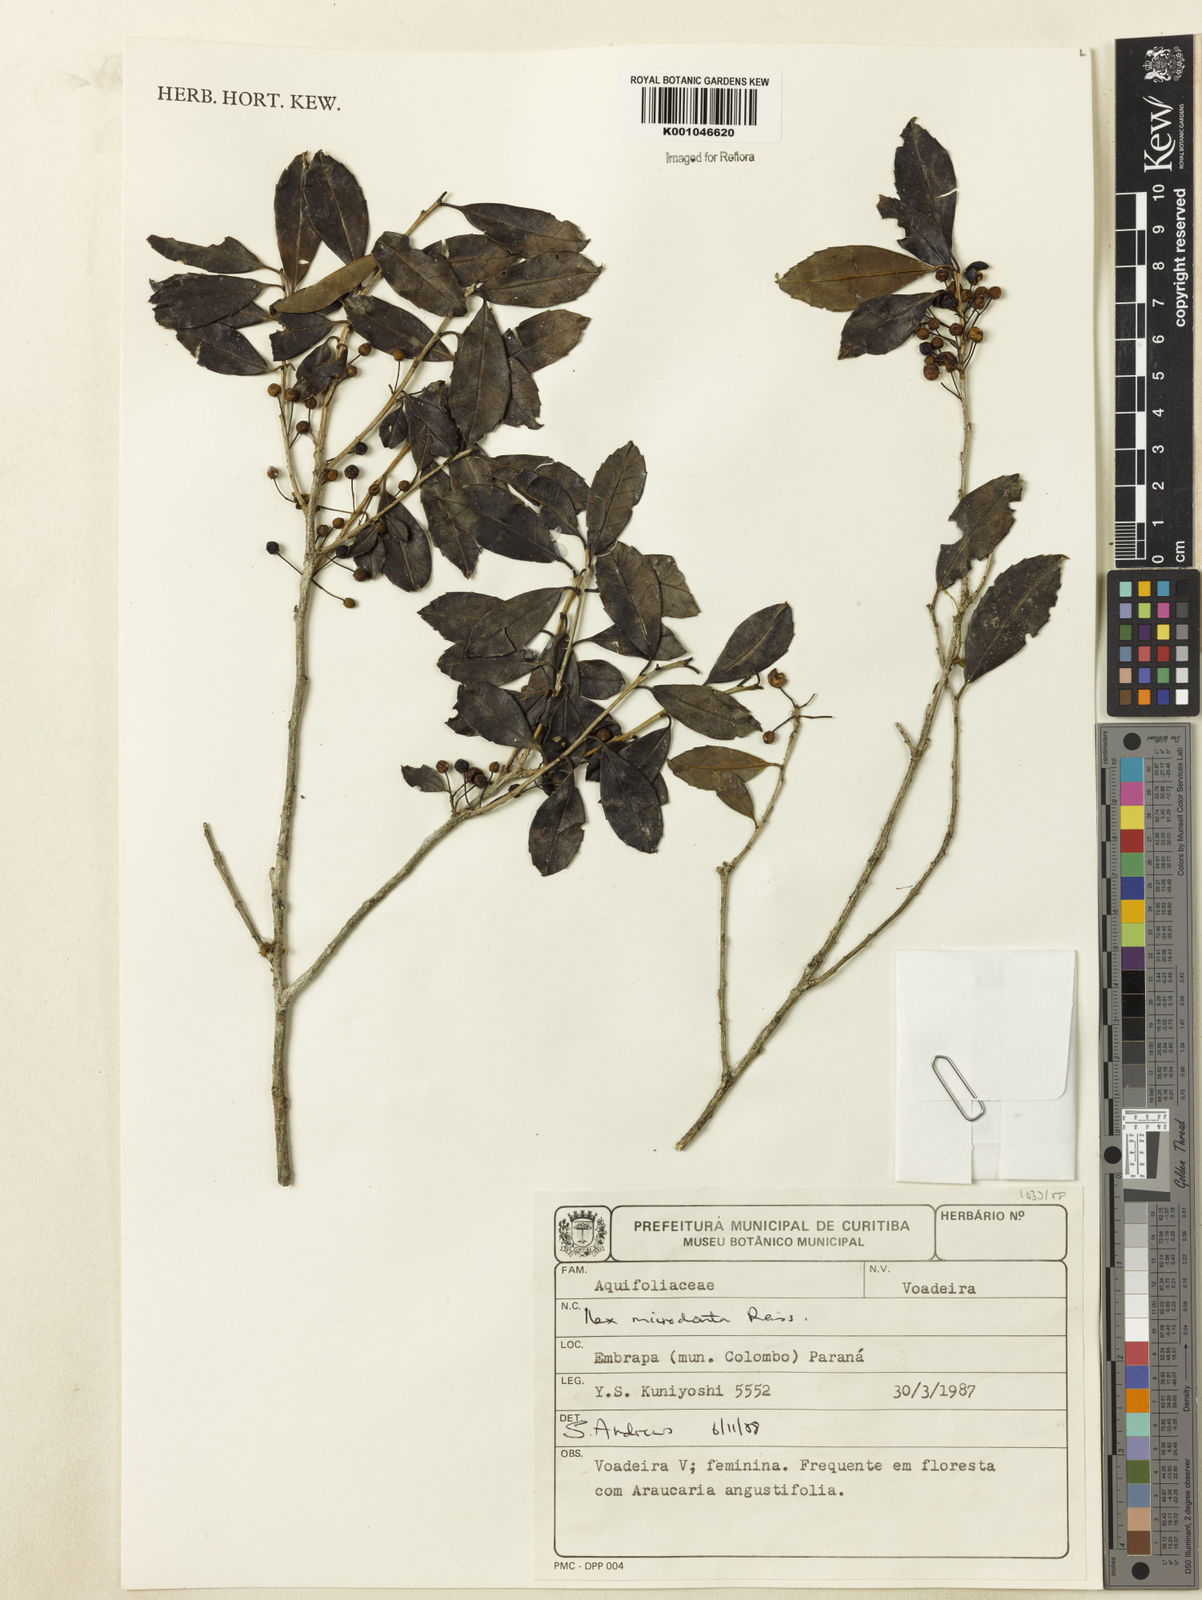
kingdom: Plantae
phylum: Tracheophyta
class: Magnoliopsida
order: Aquifoliales
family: Aquifoliaceae
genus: Ilex
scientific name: Ilex microdonta
